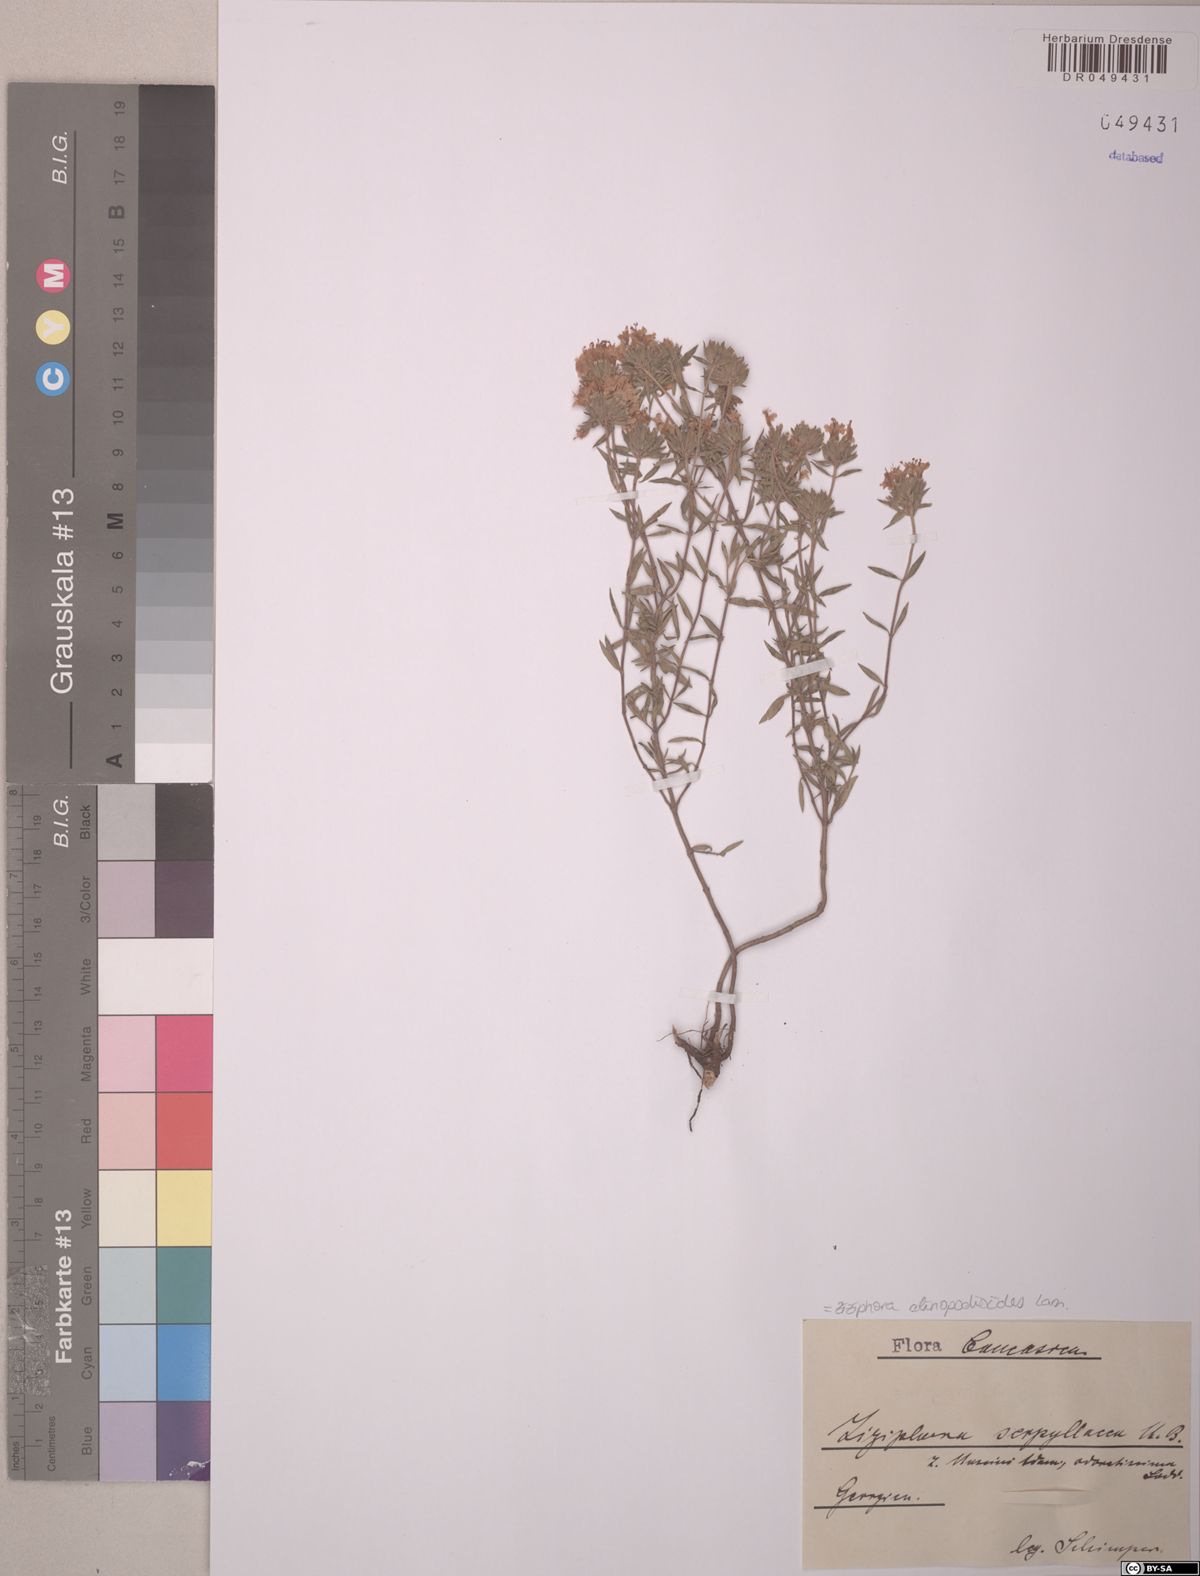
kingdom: Plantae
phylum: Tracheophyta
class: Magnoliopsida
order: Lamiales
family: Lamiaceae
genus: Ziziphora
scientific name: Ziziphora clinopodioides
